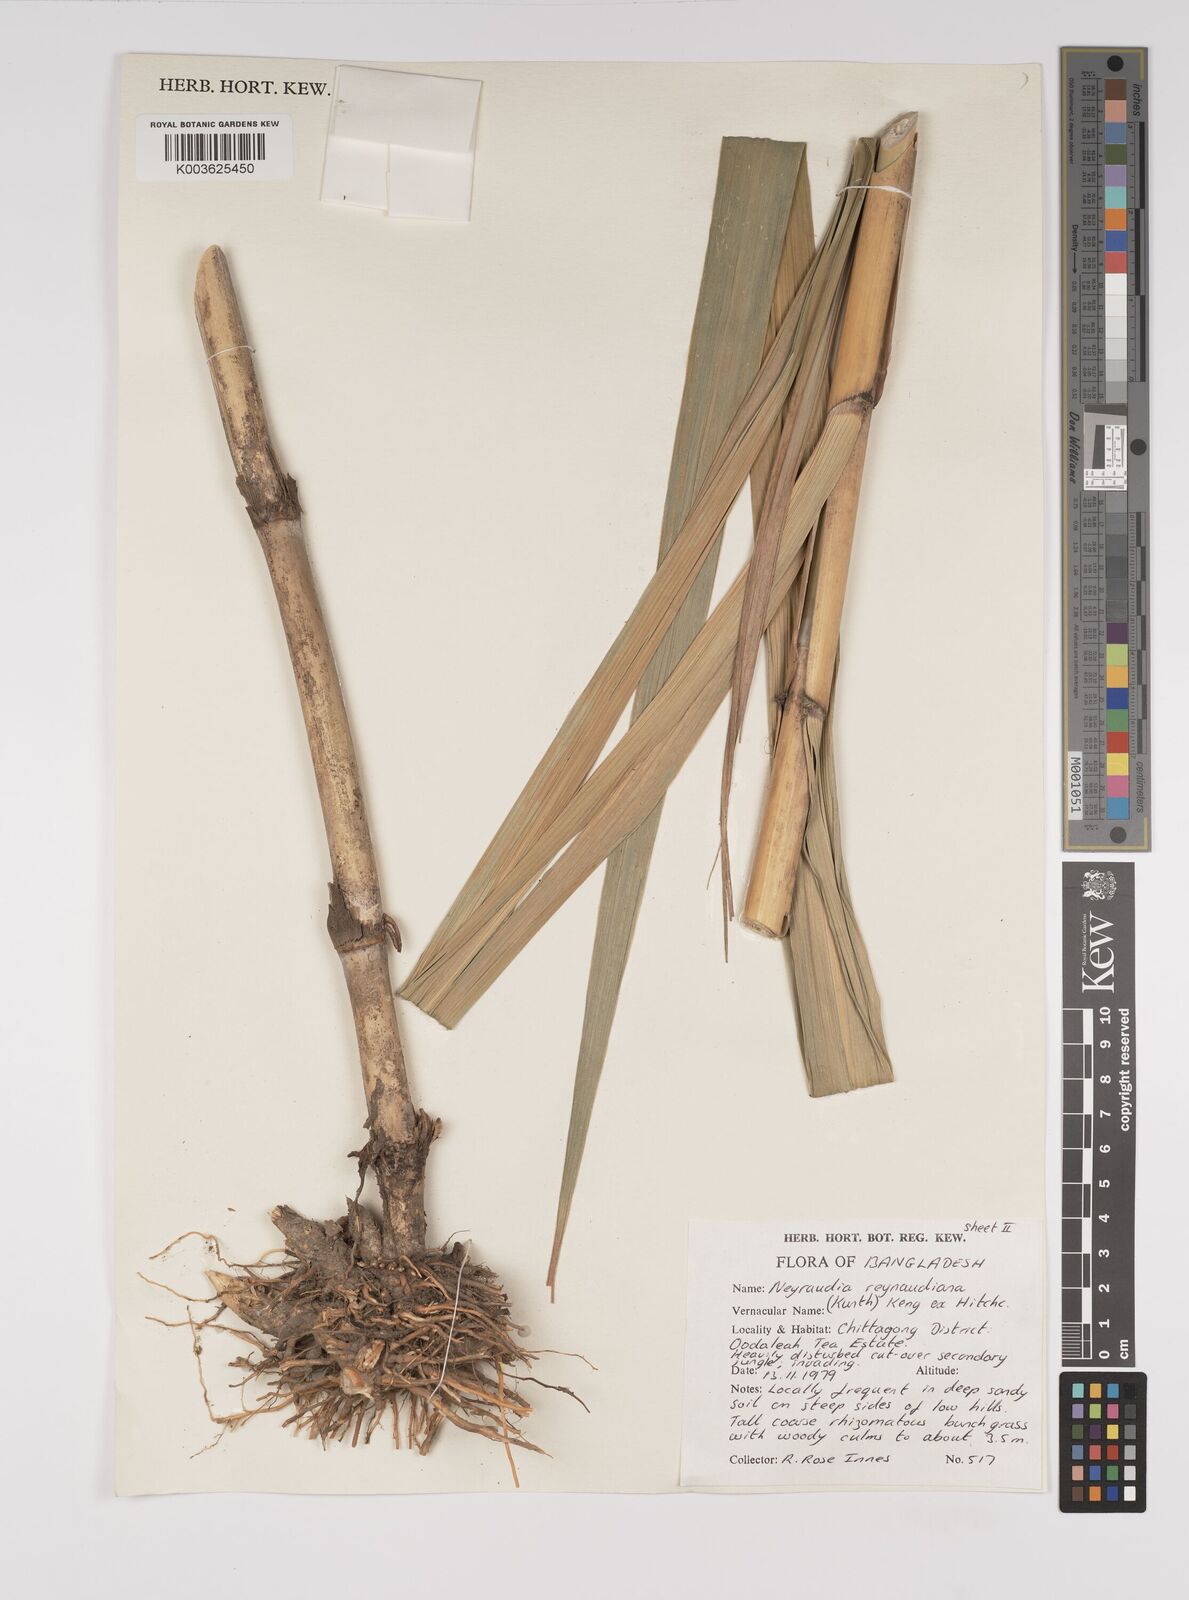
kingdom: Plantae
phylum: Tracheophyta
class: Liliopsida
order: Poales
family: Poaceae
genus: Neyraudia
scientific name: Neyraudia reynaudiana
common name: Silkreed
